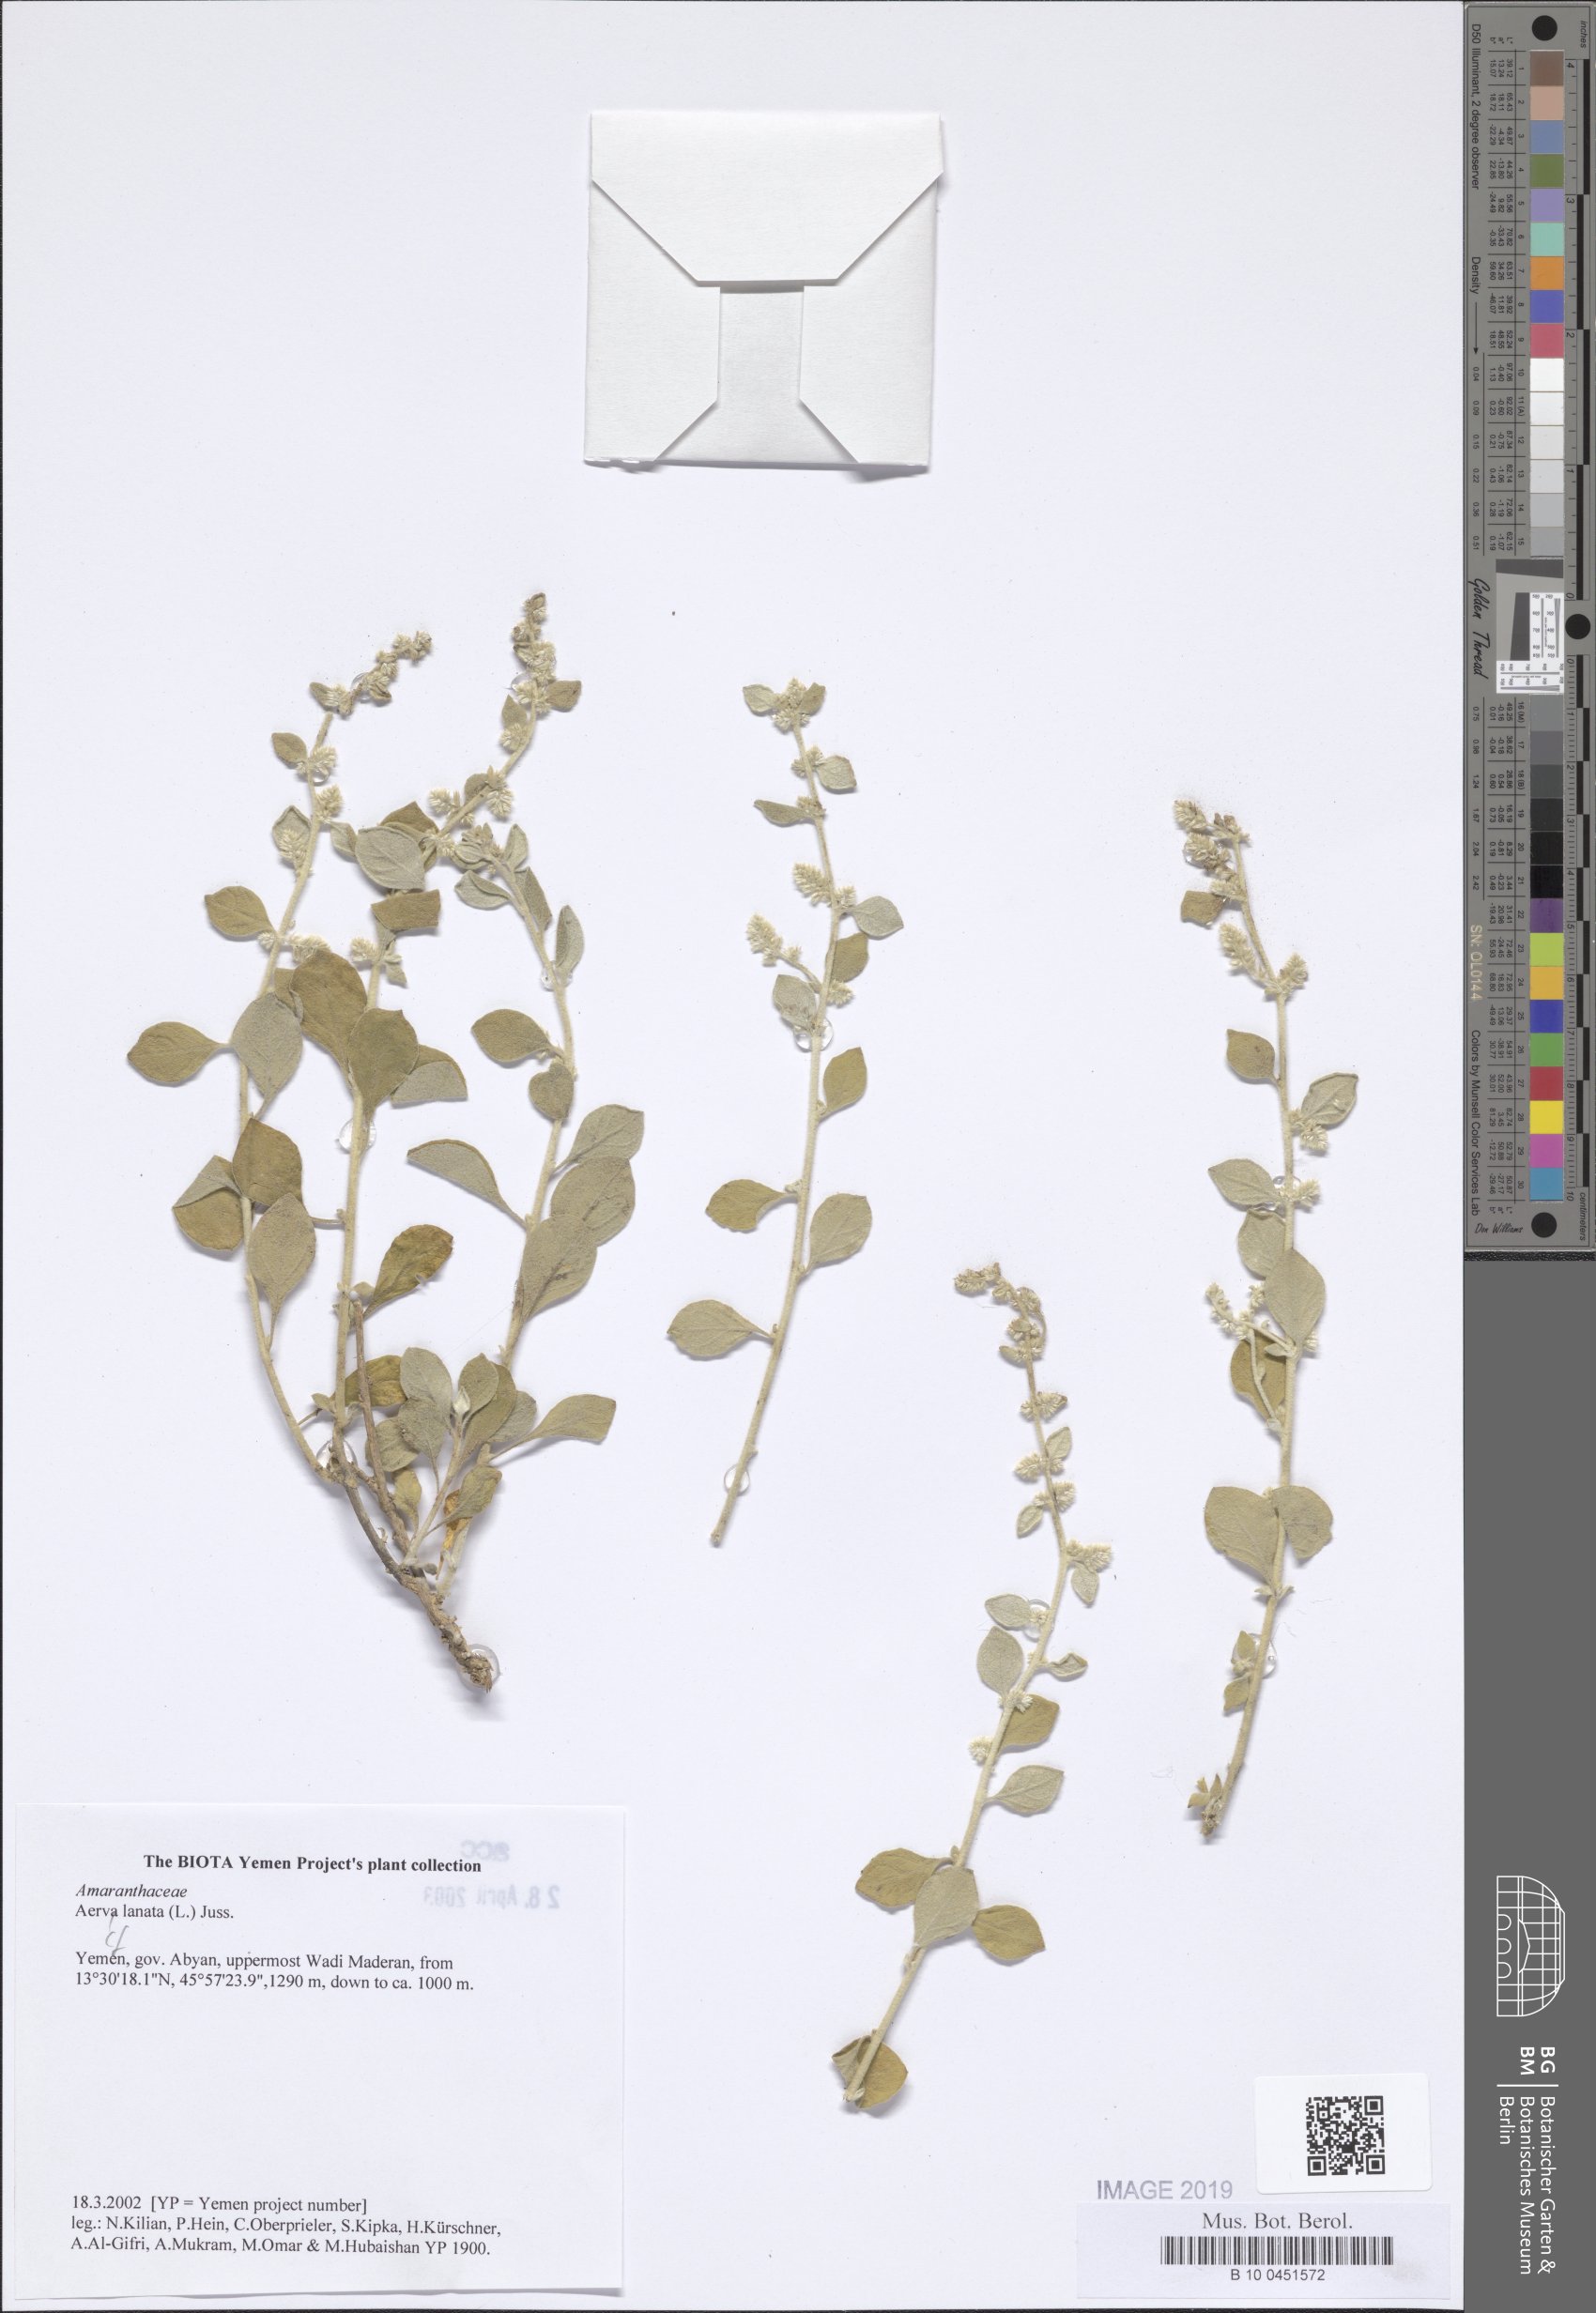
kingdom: Plantae
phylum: Tracheophyta
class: Magnoliopsida
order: Caryophyllales
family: Amaranthaceae
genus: Ouret
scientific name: Ouret lanata
